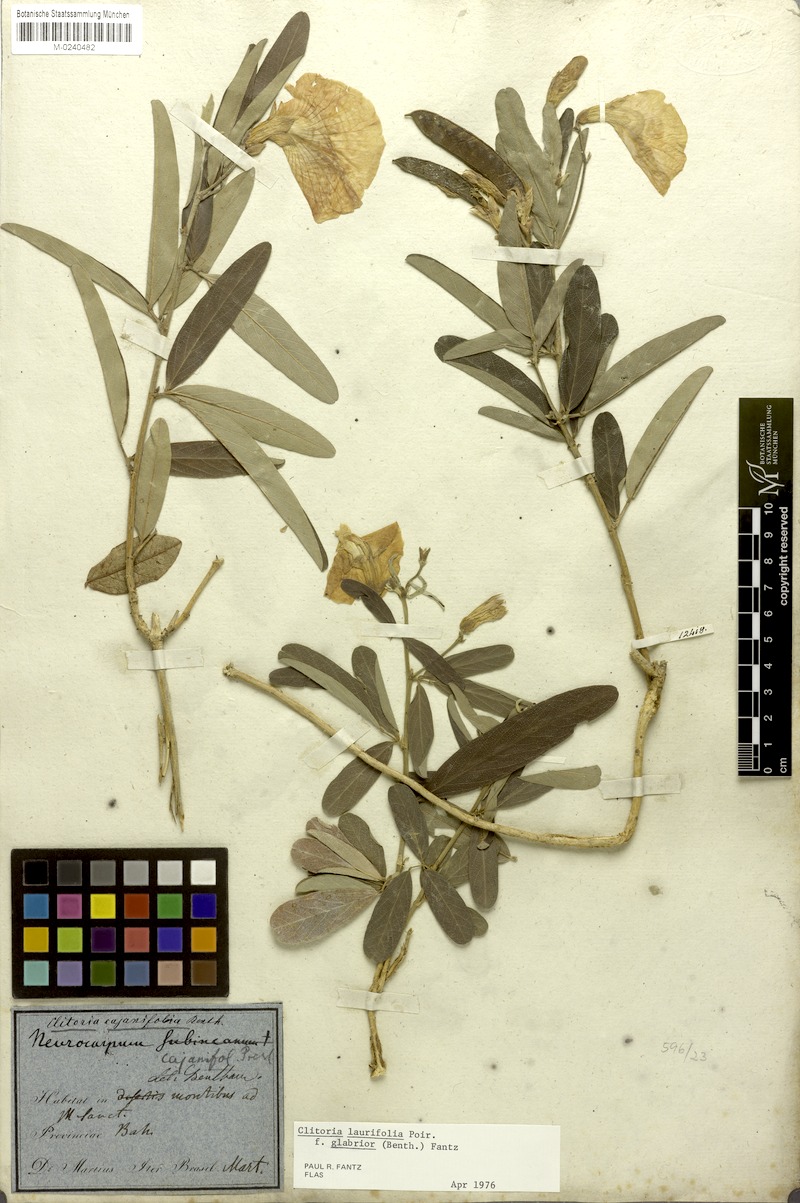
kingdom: Plantae
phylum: Tracheophyta
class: Magnoliopsida
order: Fabales
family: Fabaceae
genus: Clitoria
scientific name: Clitoria laurifolia
